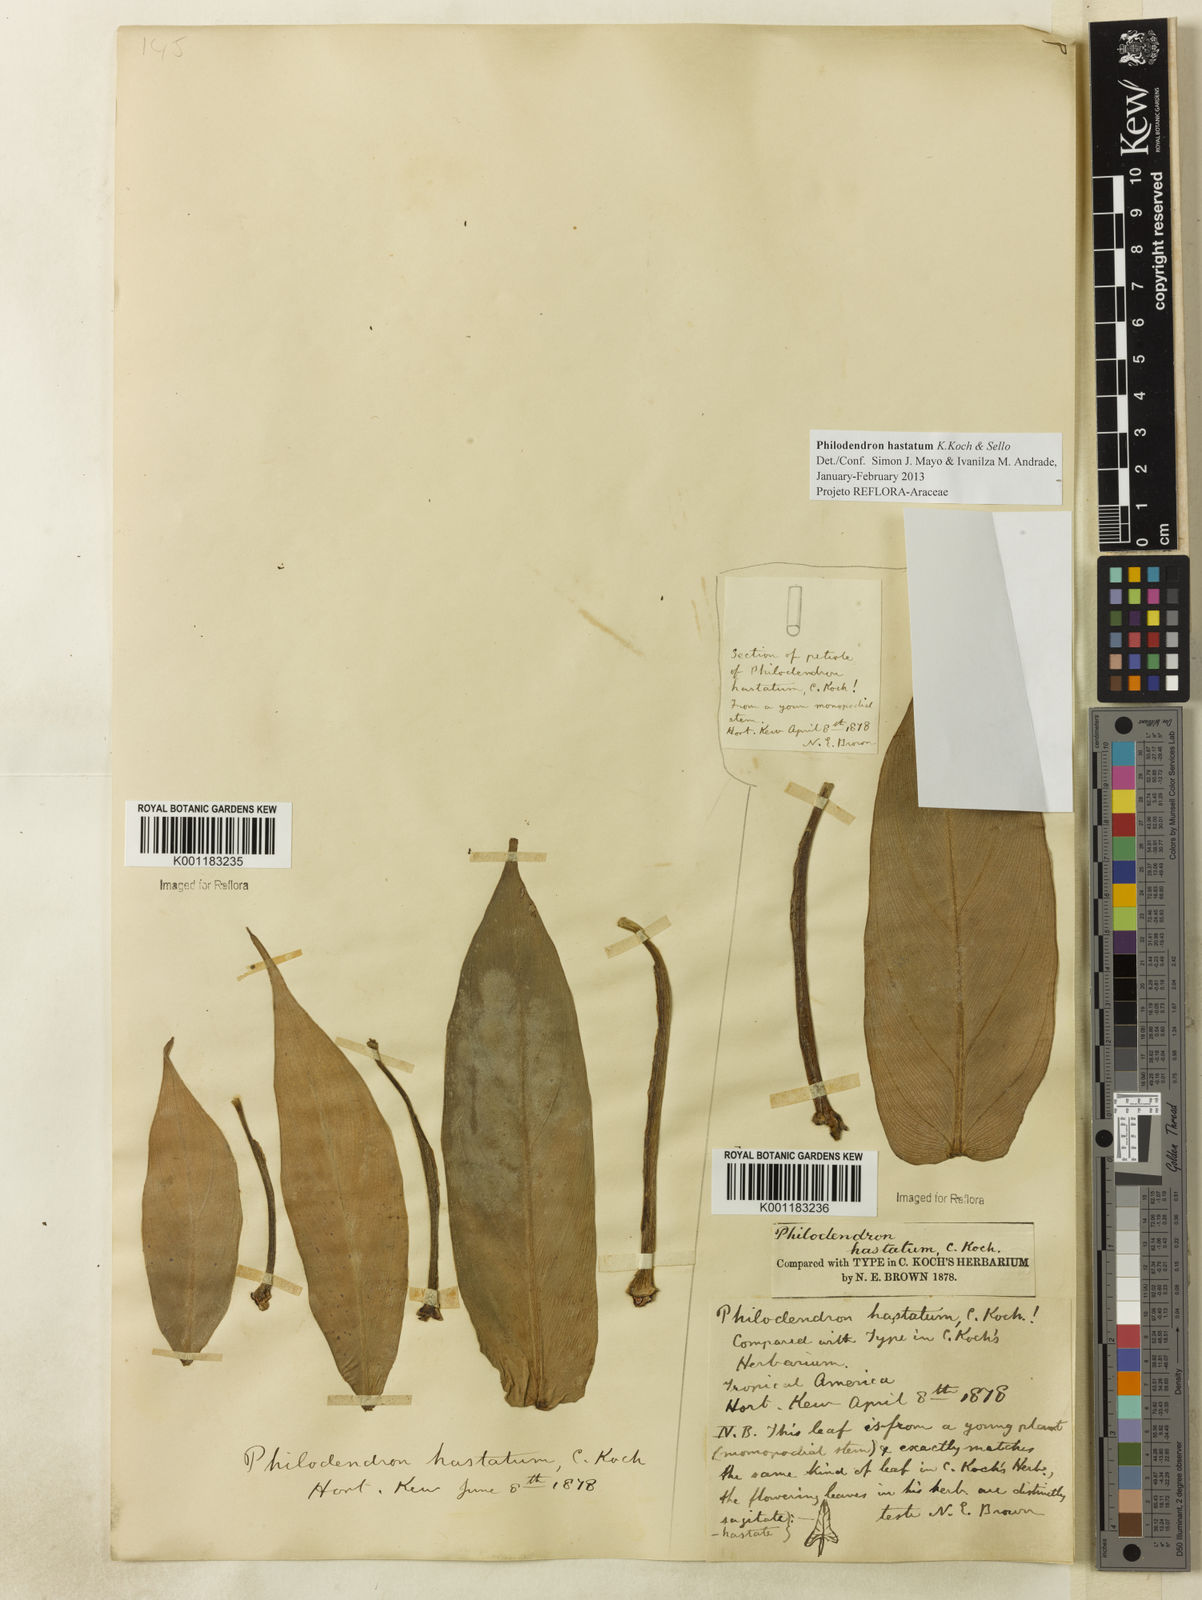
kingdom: Plantae
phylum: Tracheophyta
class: Liliopsida
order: Alismatales
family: Araceae
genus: Philodendron
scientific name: Philodendron hastatum
